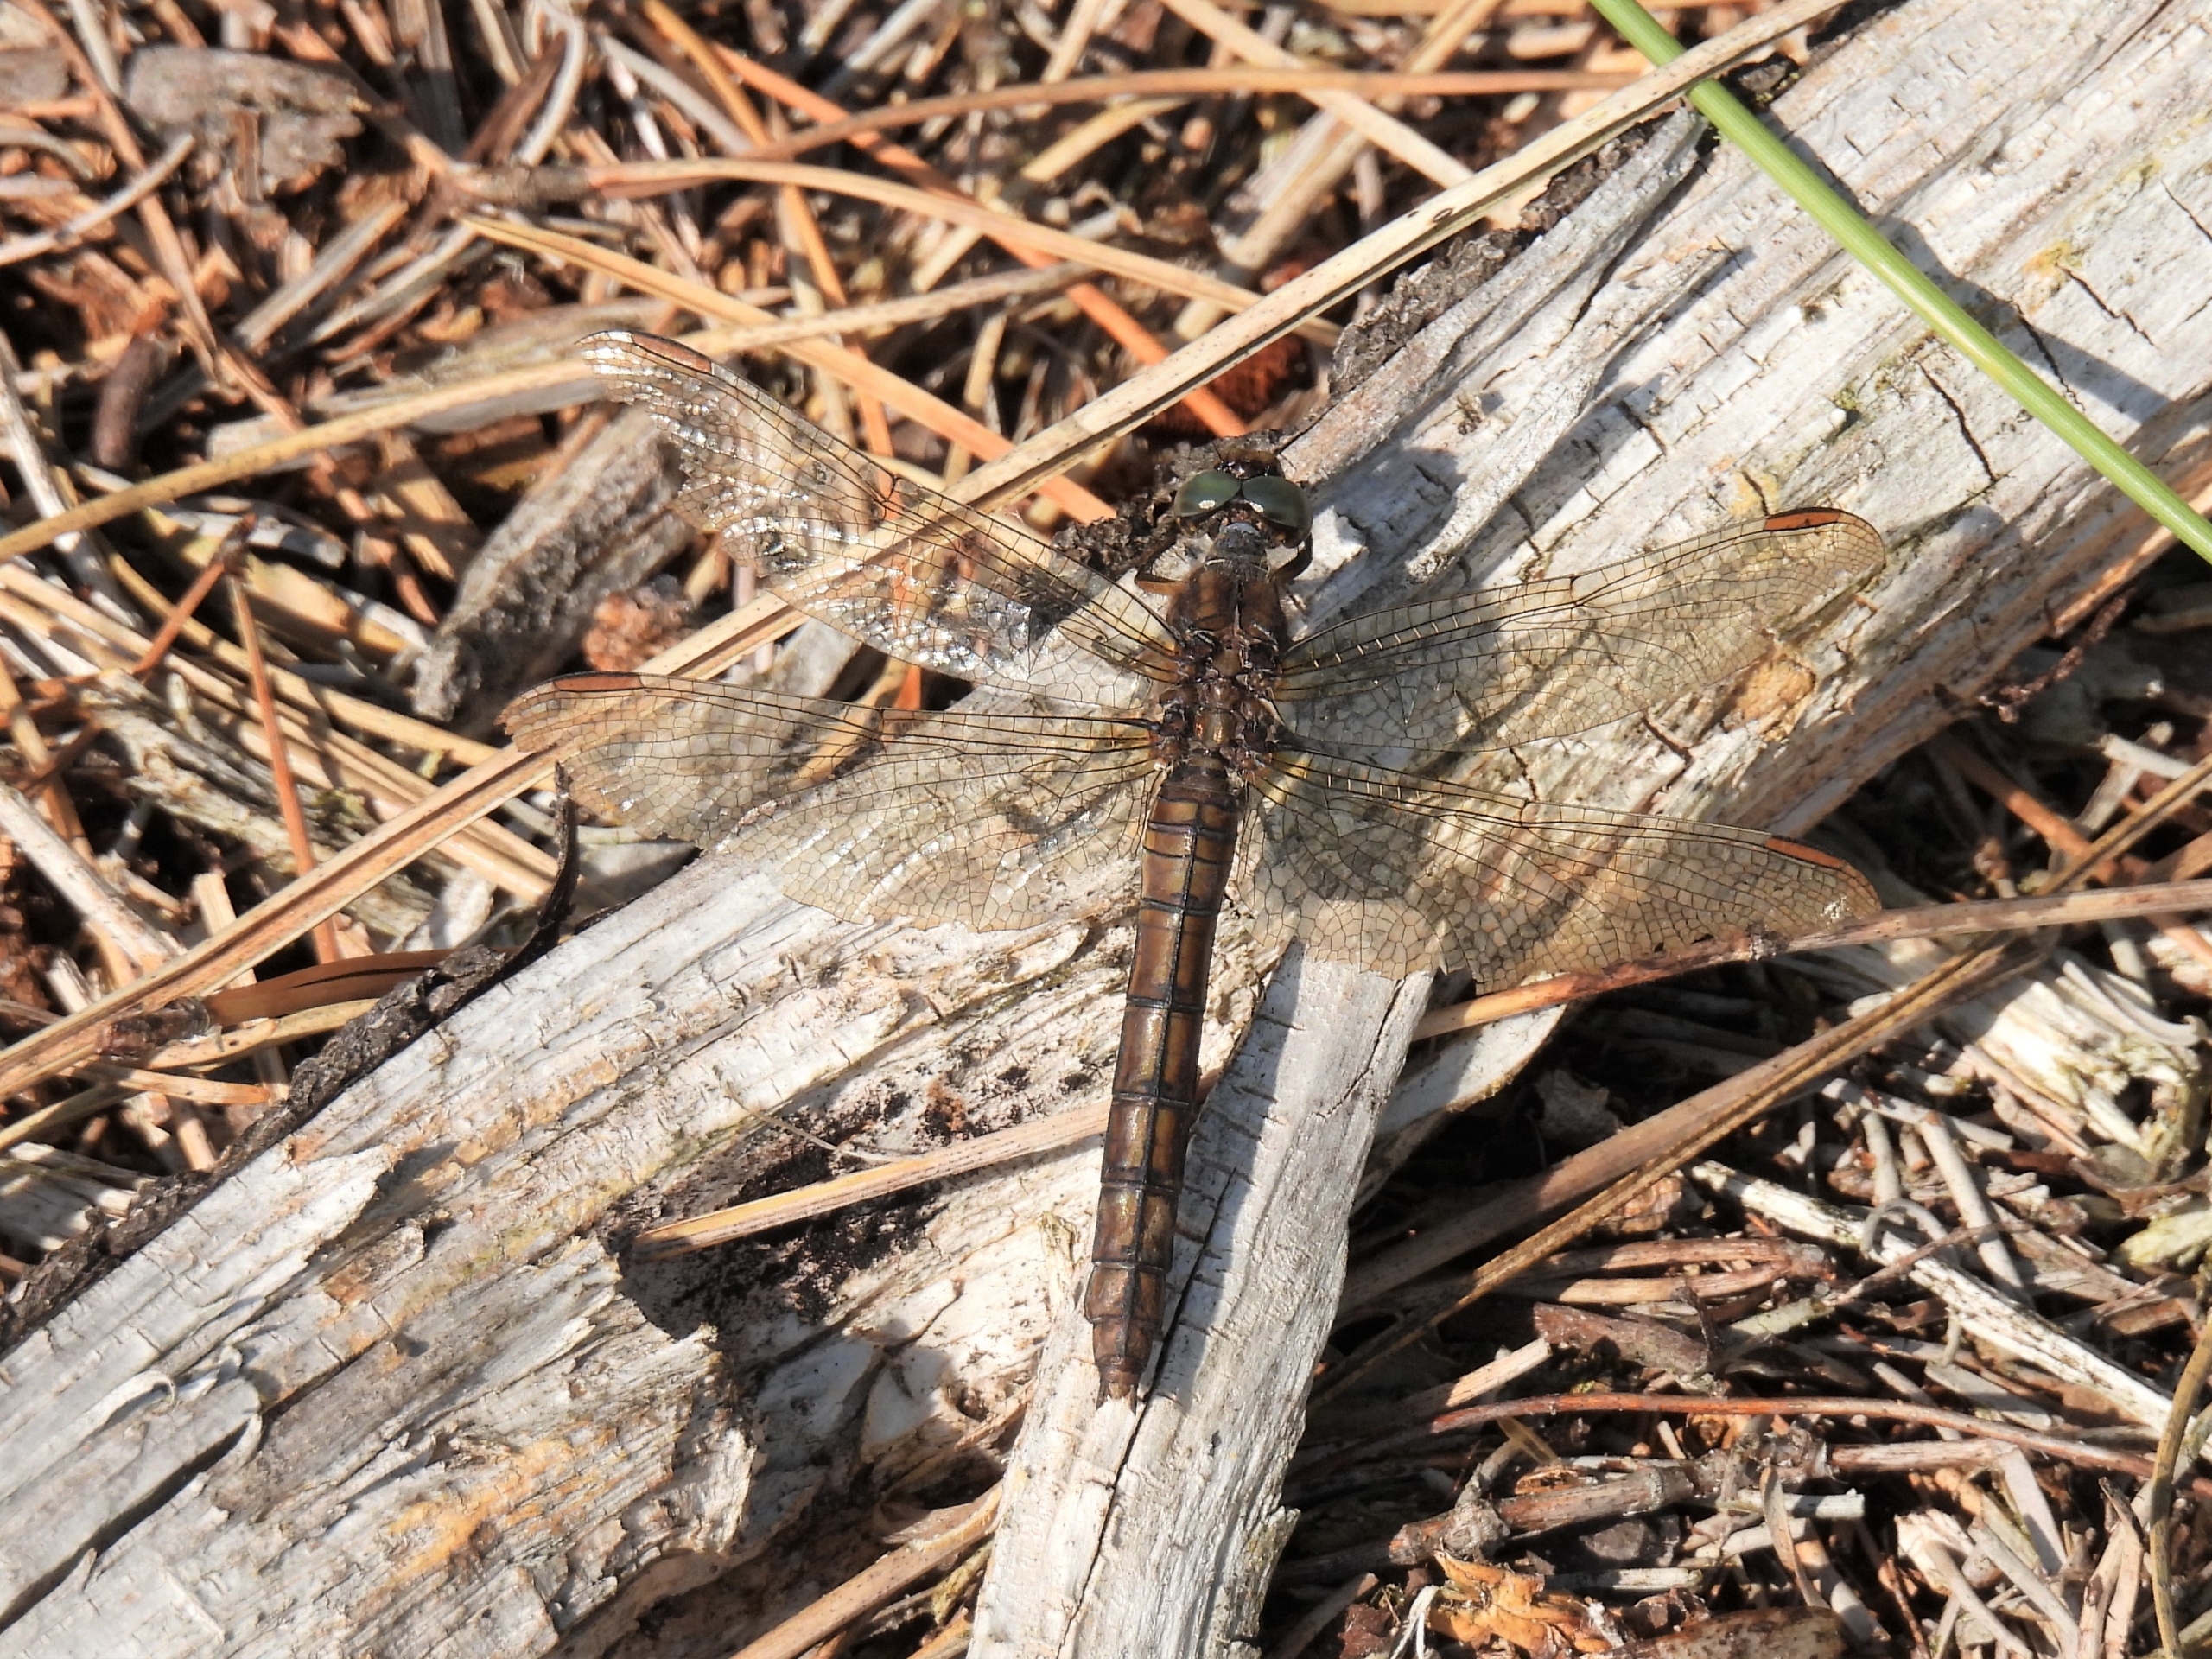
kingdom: Animalia
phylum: Arthropoda
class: Insecta
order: Odonata
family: Libellulidae
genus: Orthetrum
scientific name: Orthetrum coerulescens
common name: Lille blåpil
